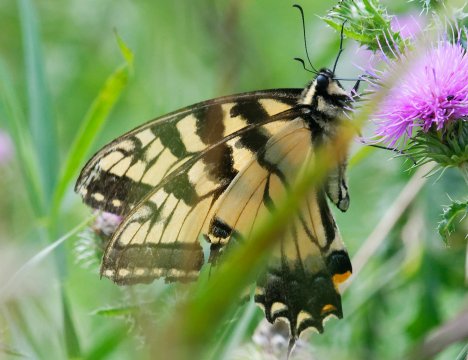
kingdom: Animalia
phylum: Arthropoda
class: Insecta
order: Lepidoptera
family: Papilionidae
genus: Pterourus
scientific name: Pterourus
